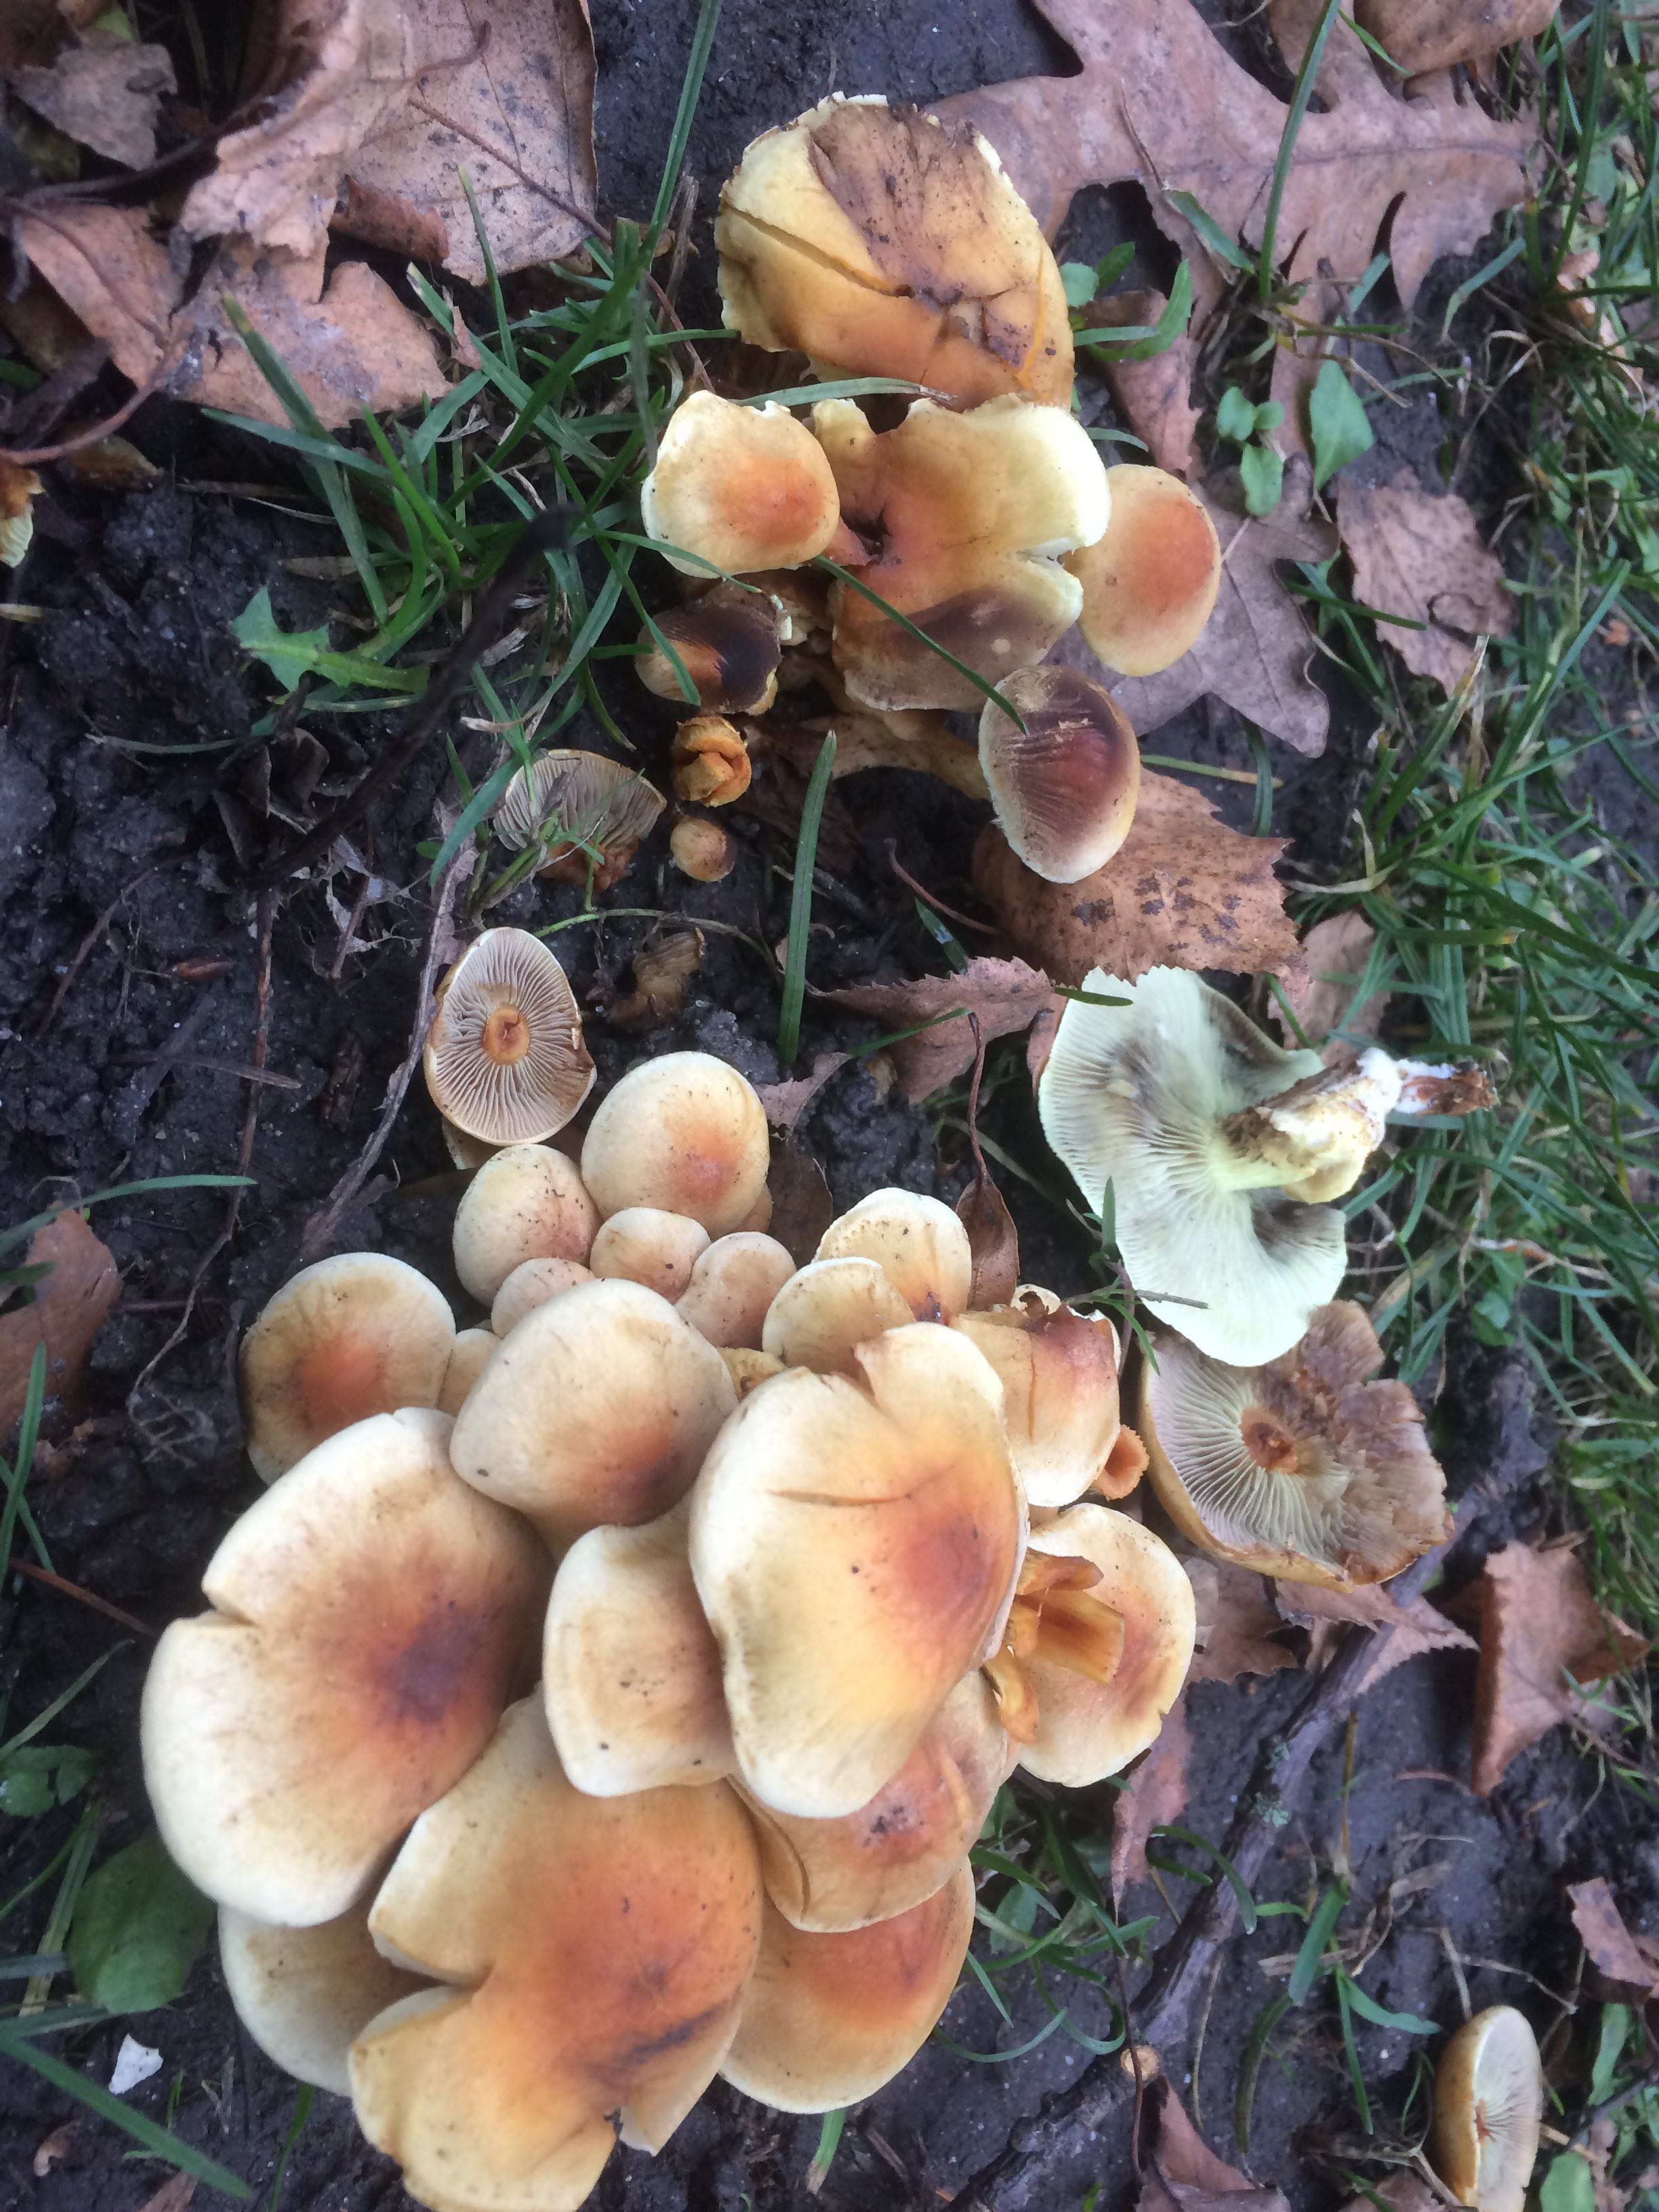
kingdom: Fungi
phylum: Basidiomycota
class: Agaricomycetes
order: Agaricales
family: Strophariaceae
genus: Hypholoma
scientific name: Hypholoma fasciculare
